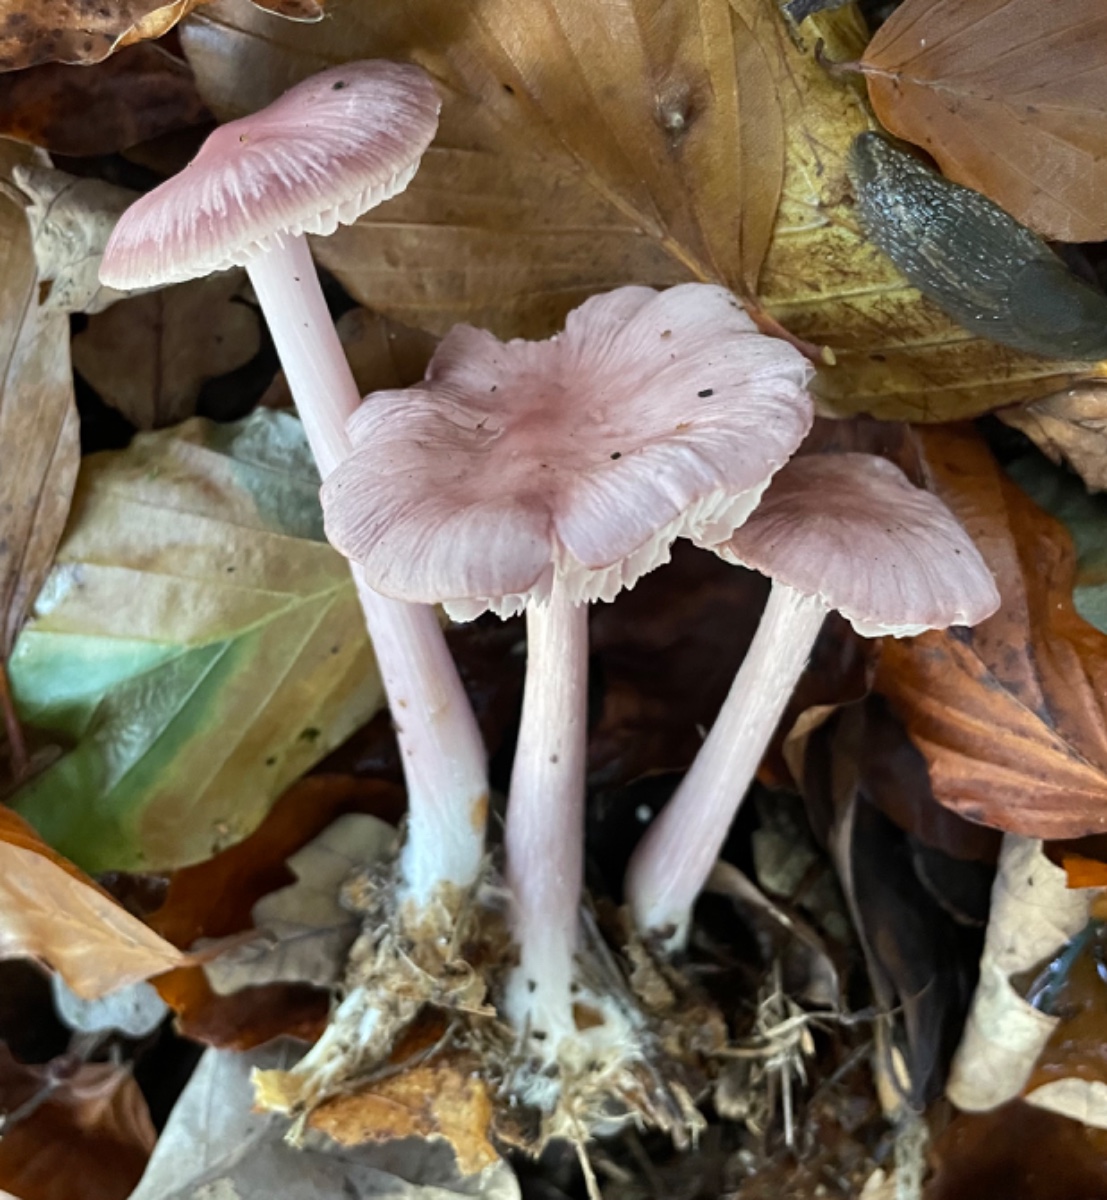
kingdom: Fungi
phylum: Basidiomycota
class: Agaricomycetes
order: Agaricales
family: Mycenaceae
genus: Mycena
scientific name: Mycena rosea
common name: rosa huesvamp
